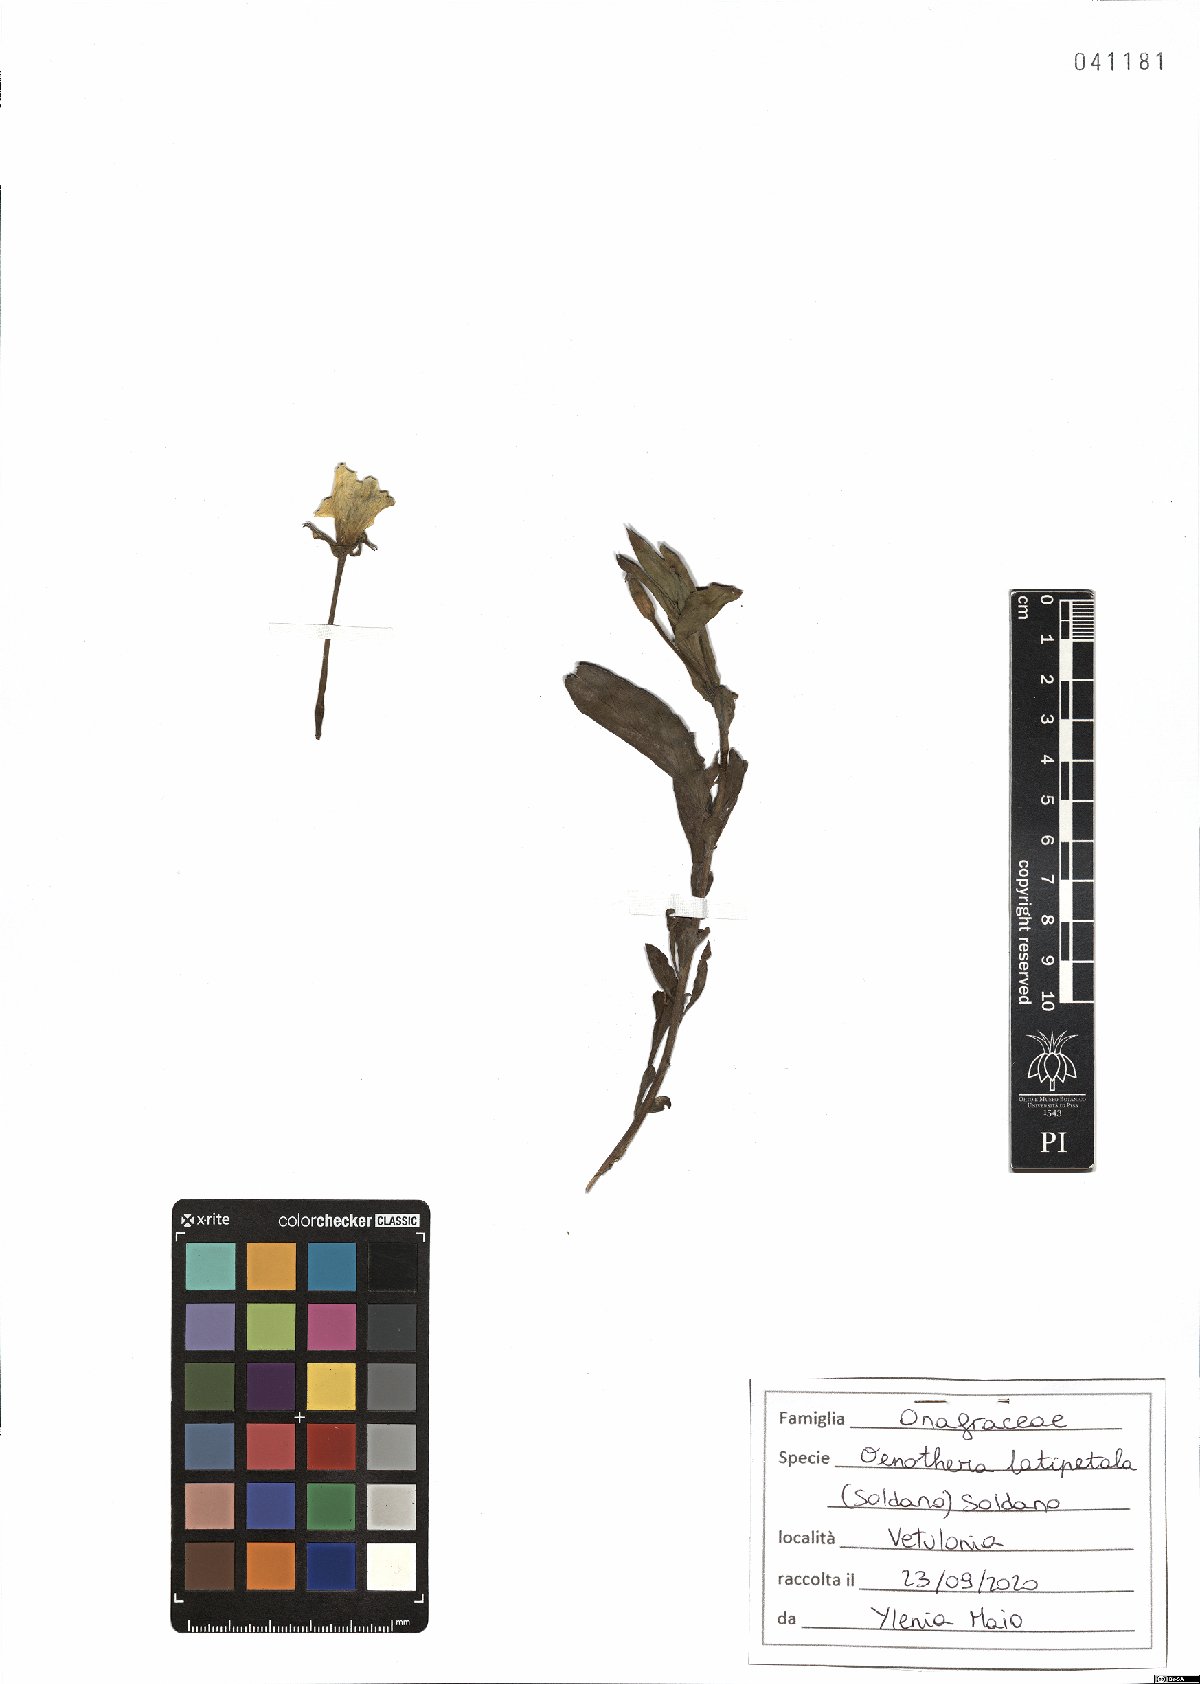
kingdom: Plantae
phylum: Tracheophyta
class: Magnoliopsida
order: Myrtales
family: Onagraceae
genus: Oenothera
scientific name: Oenothera latipetala
